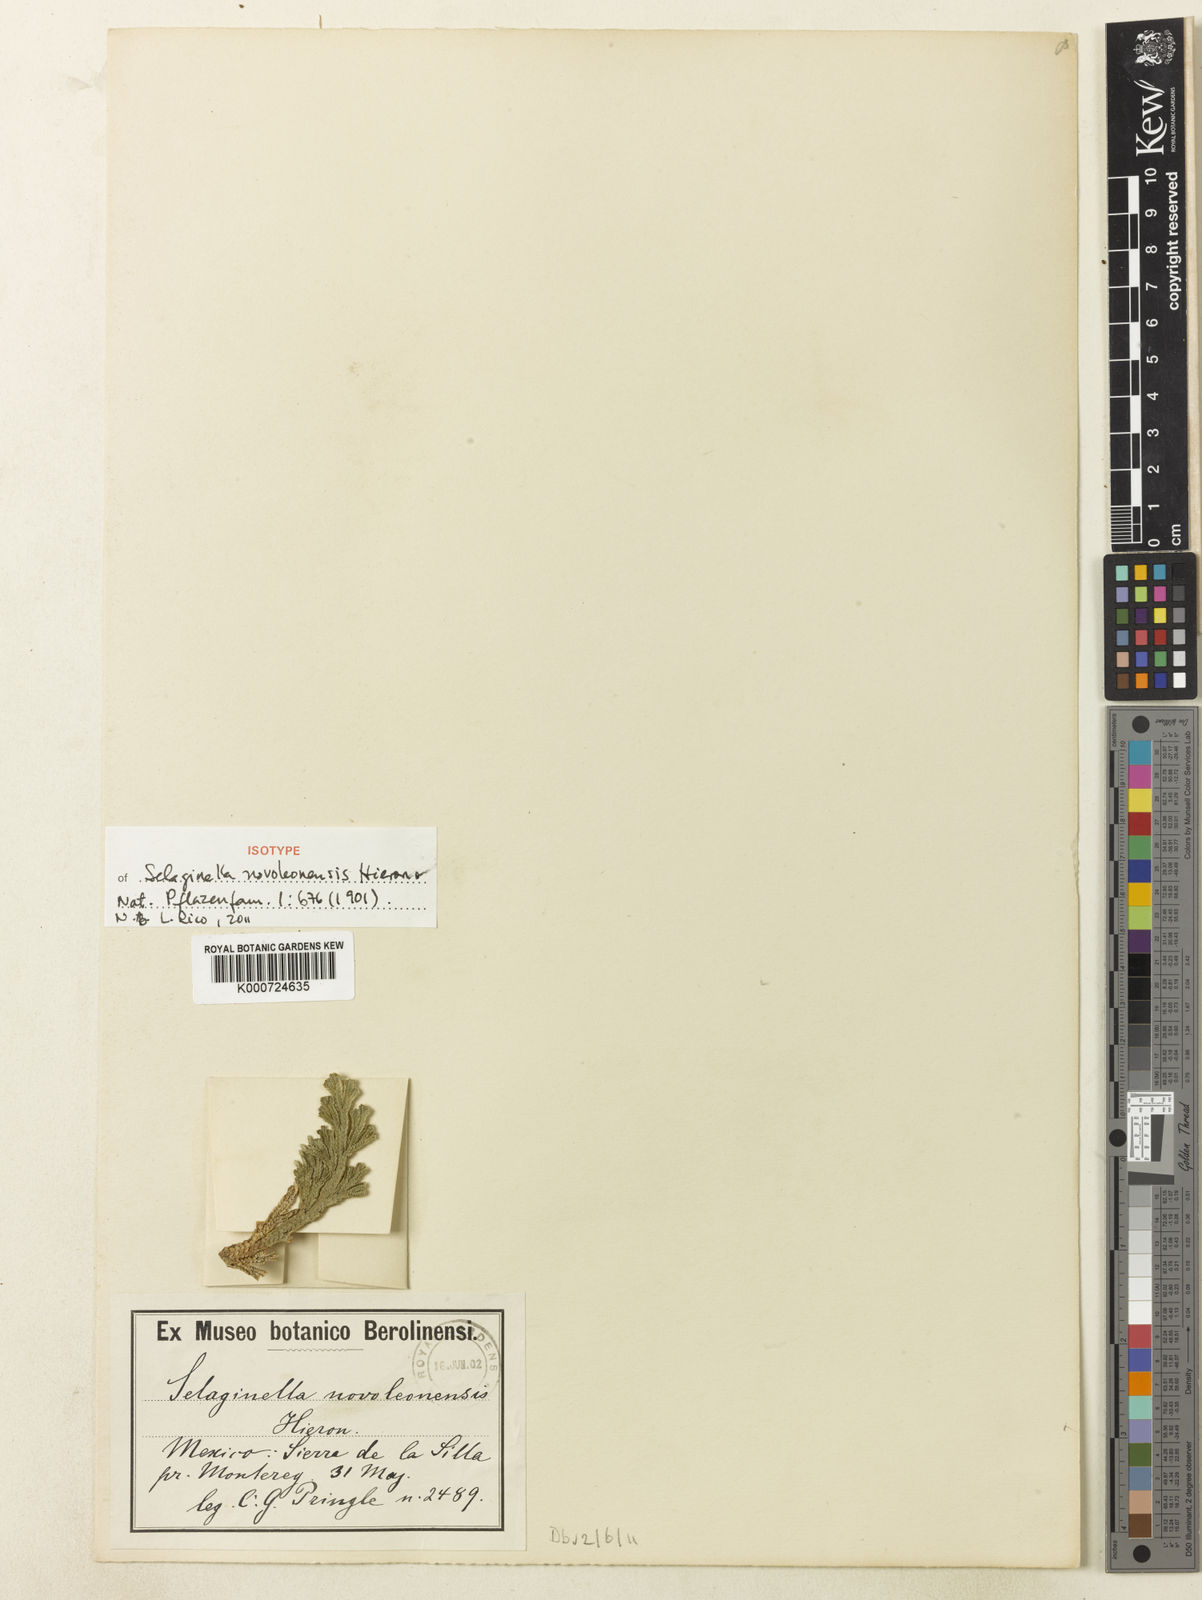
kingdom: Plantae
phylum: Tracheophyta
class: Lycopodiopsida
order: Selaginellales
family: Selaginellaceae
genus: Selaginella
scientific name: Selaginella novoleonensis
